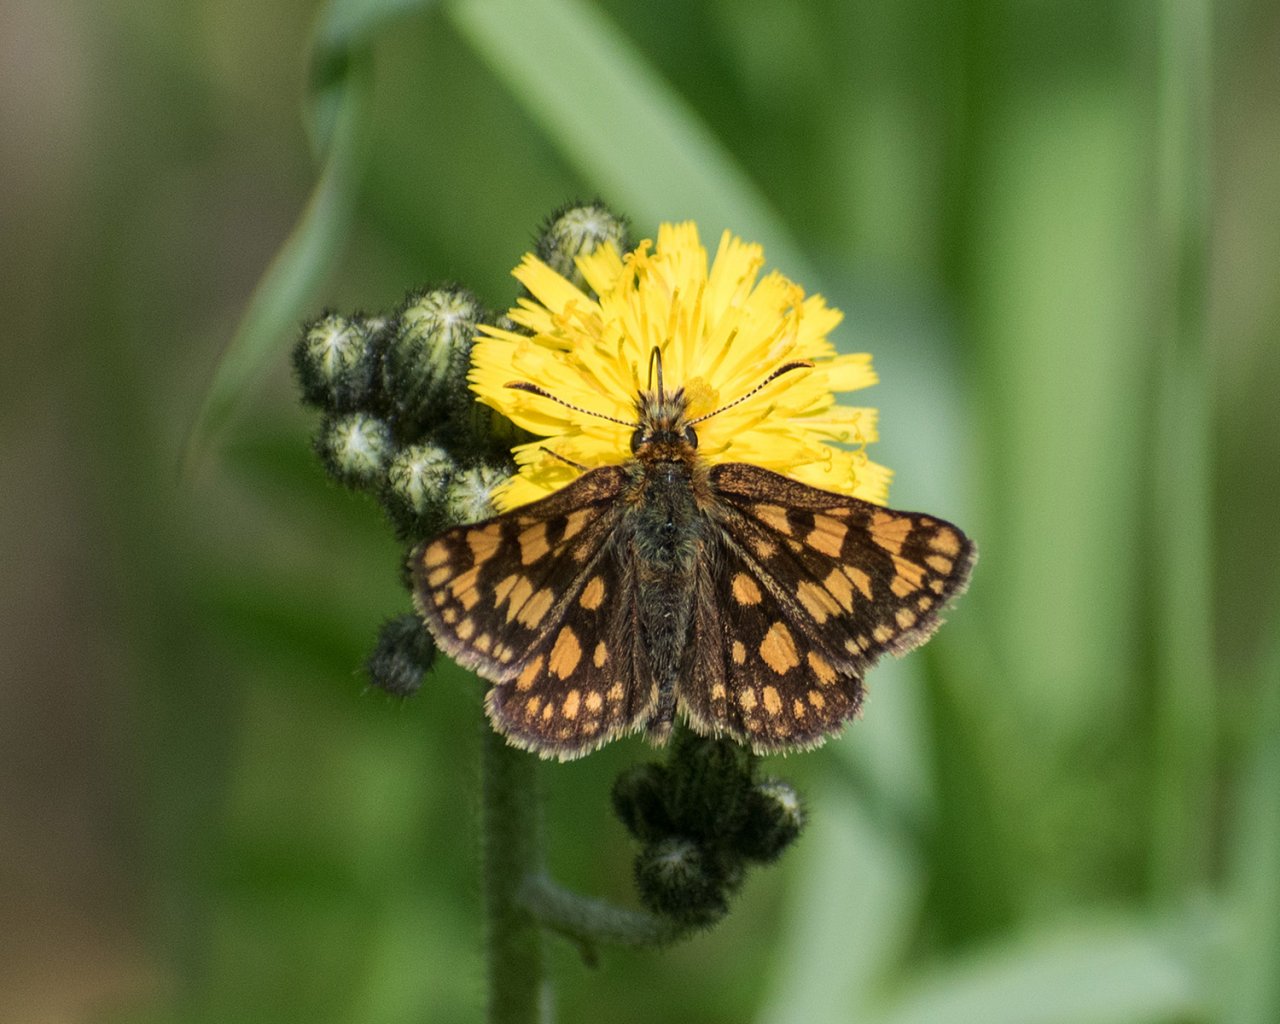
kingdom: Animalia
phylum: Arthropoda
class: Insecta
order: Lepidoptera
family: Hesperiidae
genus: Carterocephalus
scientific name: Carterocephalus palaemon
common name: Chequered Skipper
